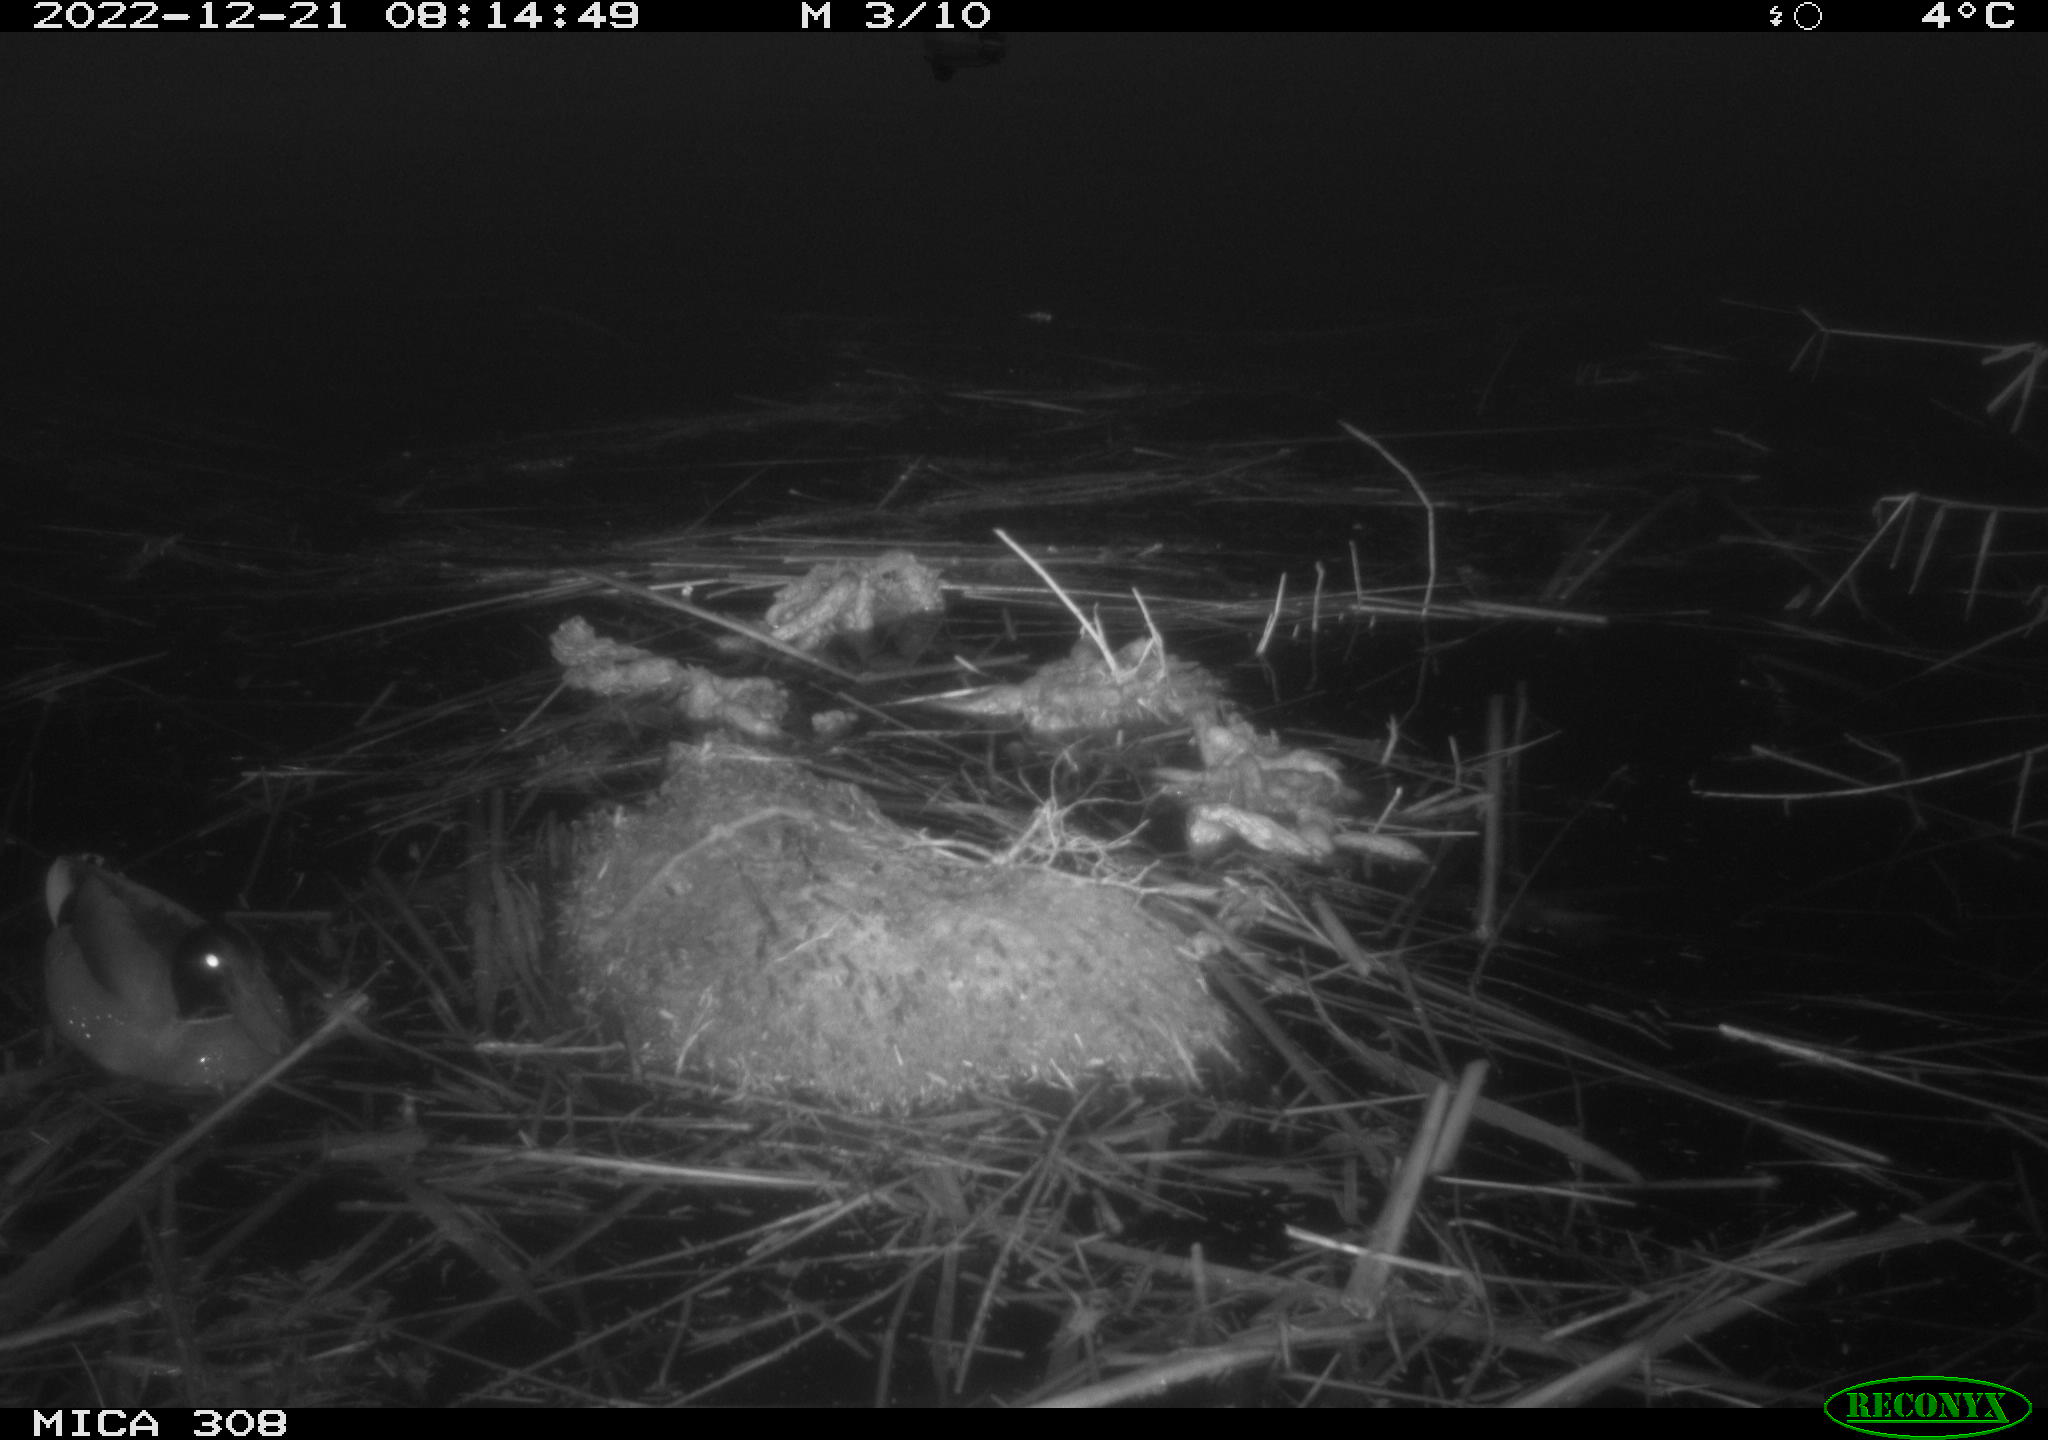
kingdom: Animalia
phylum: Chordata
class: Aves
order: Anseriformes
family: Anatidae
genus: Anas
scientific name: Anas
